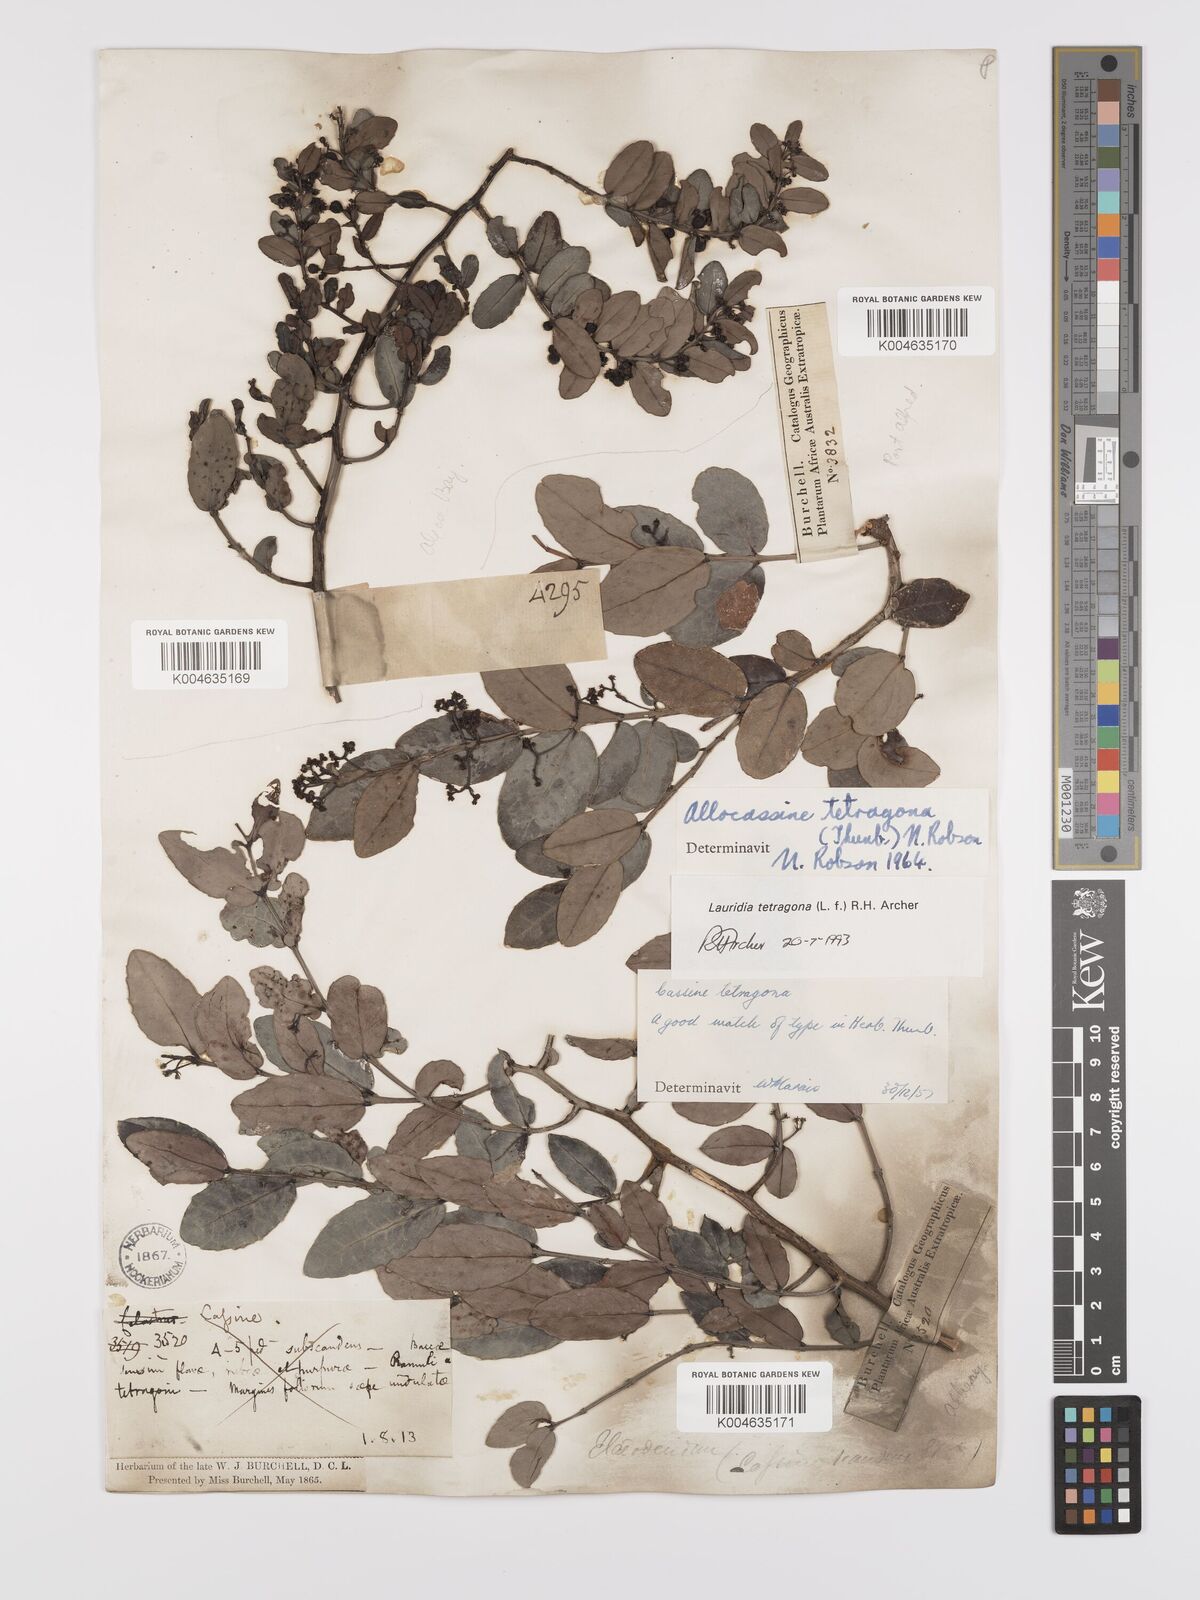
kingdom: Plantae
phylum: Tracheophyta
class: Magnoliopsida
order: Celastrales
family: Celastraceae
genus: Lauridia
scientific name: Lauridia tetragona
